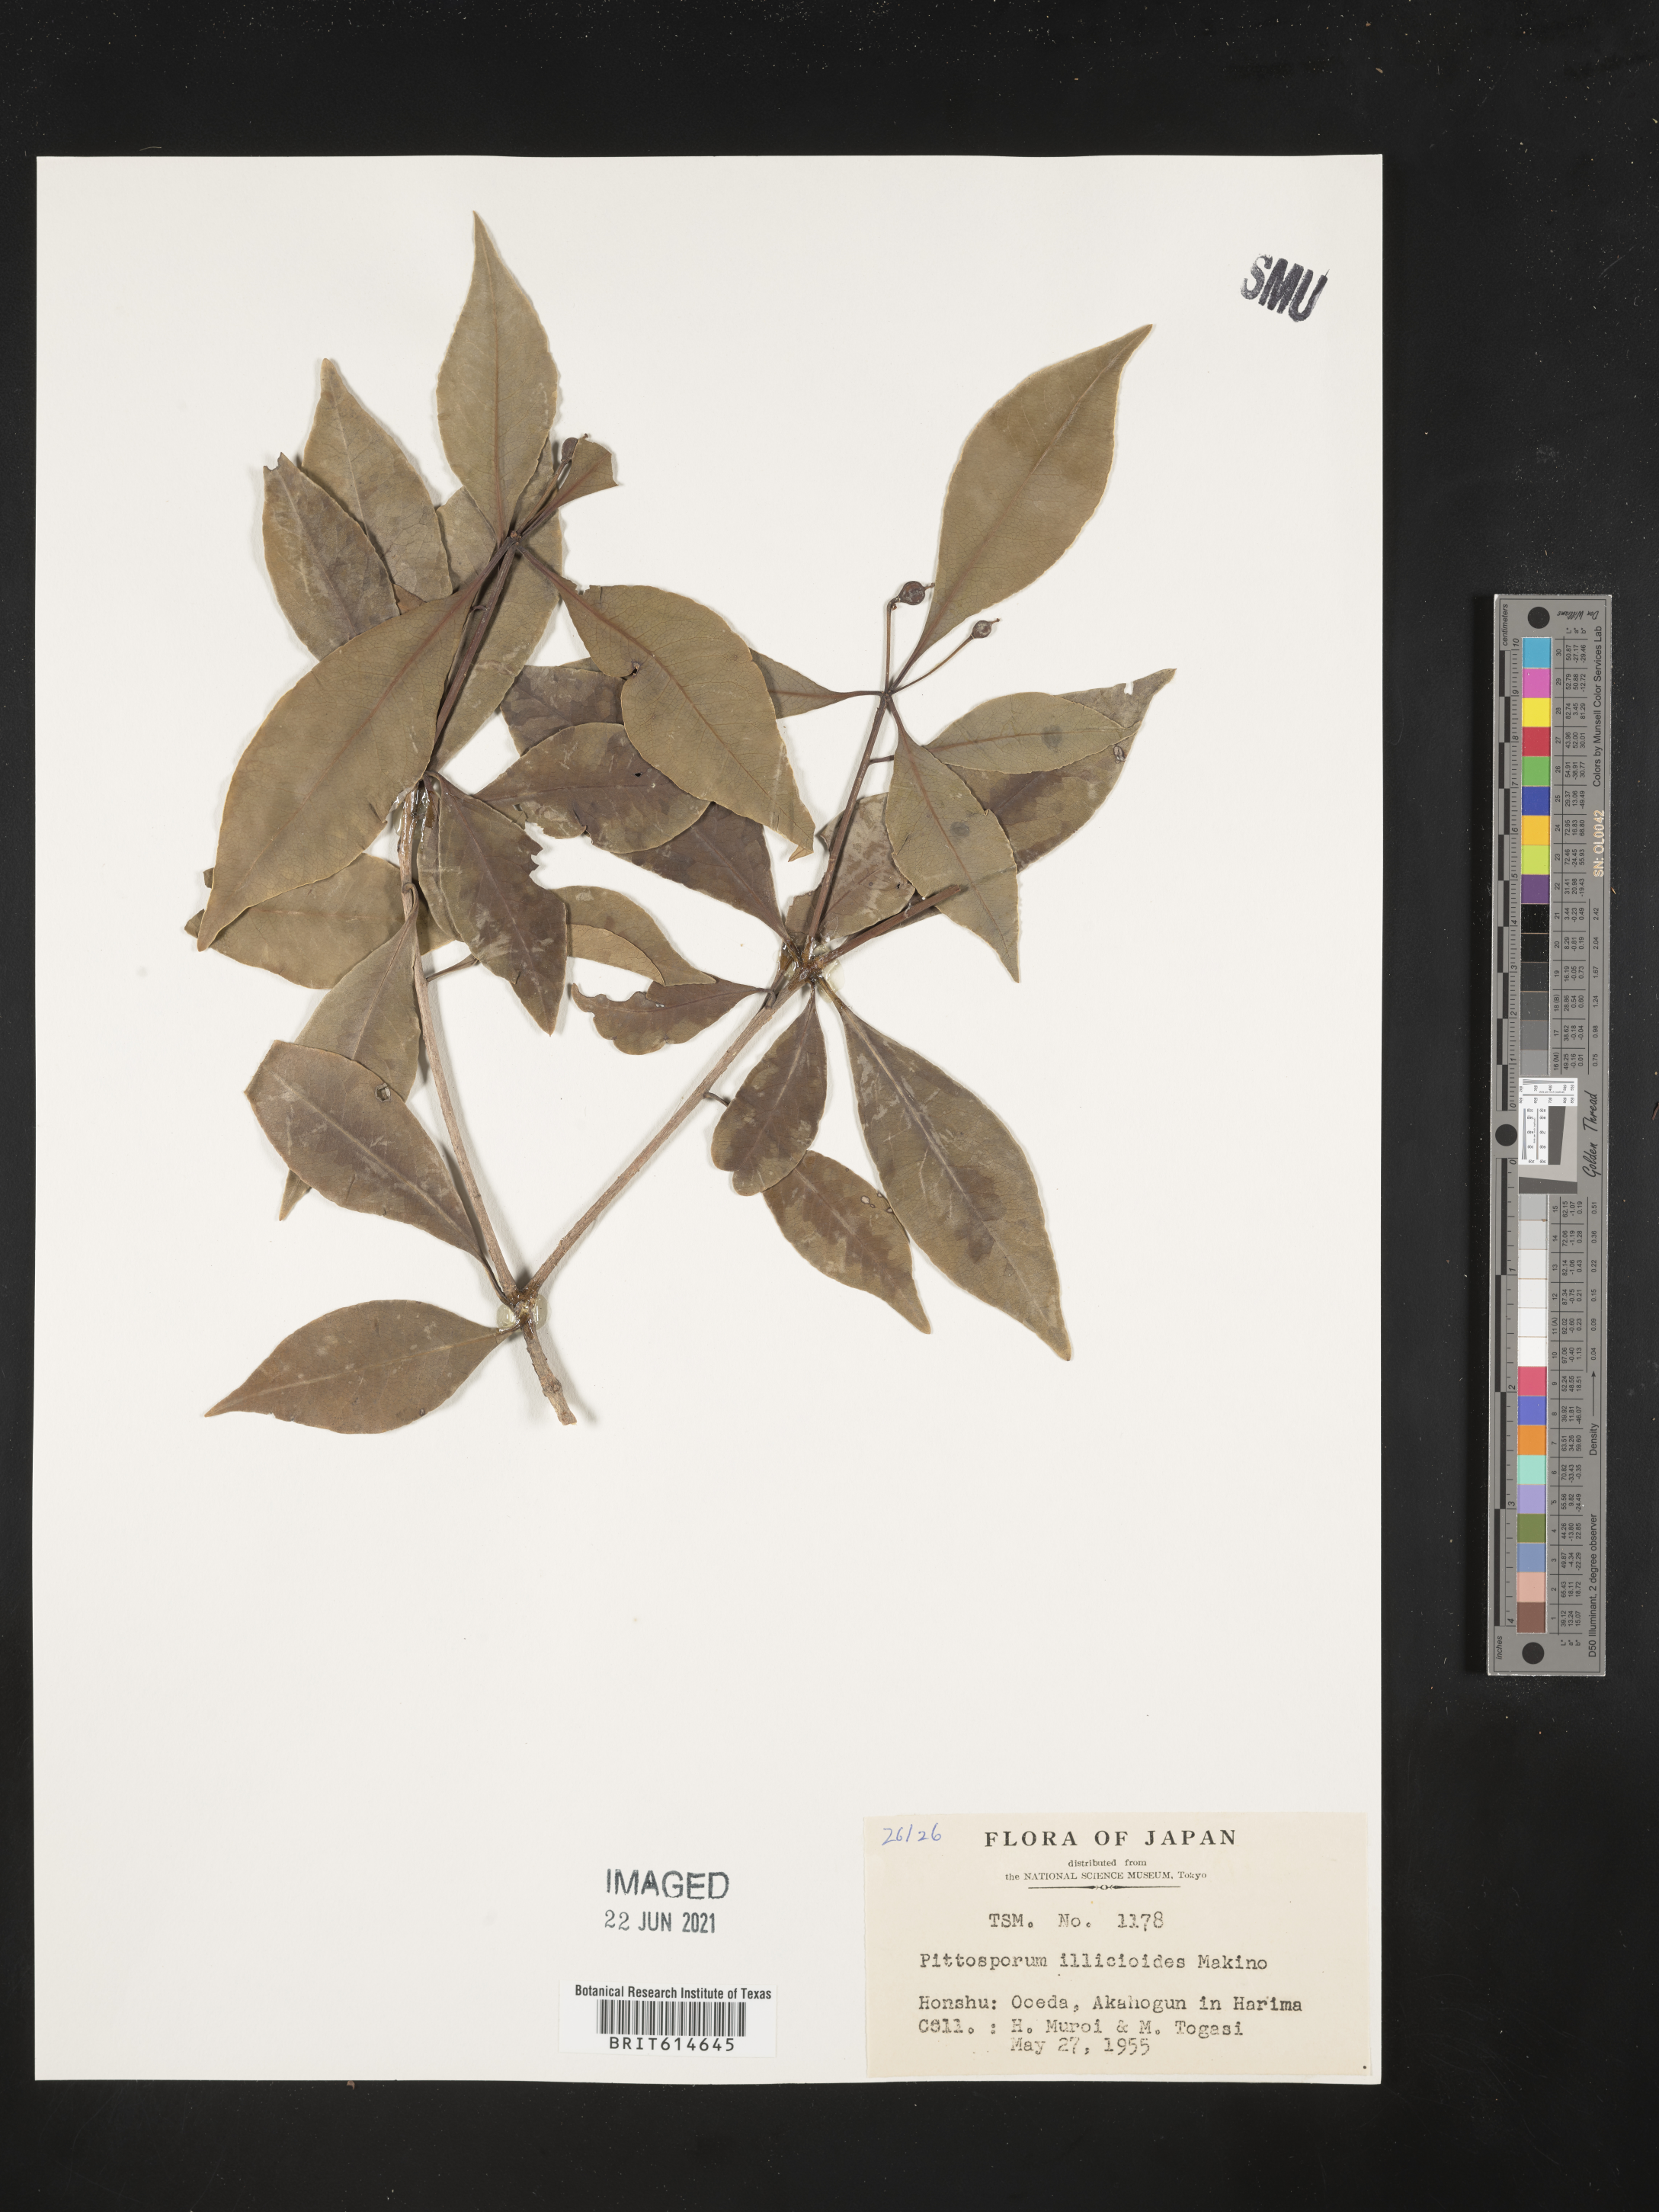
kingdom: Plantae
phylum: Tracheophyta
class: Magnoliopsida
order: Apiales
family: Pittosporaceae
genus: Pittosporum
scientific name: Pittosporum illicioides
